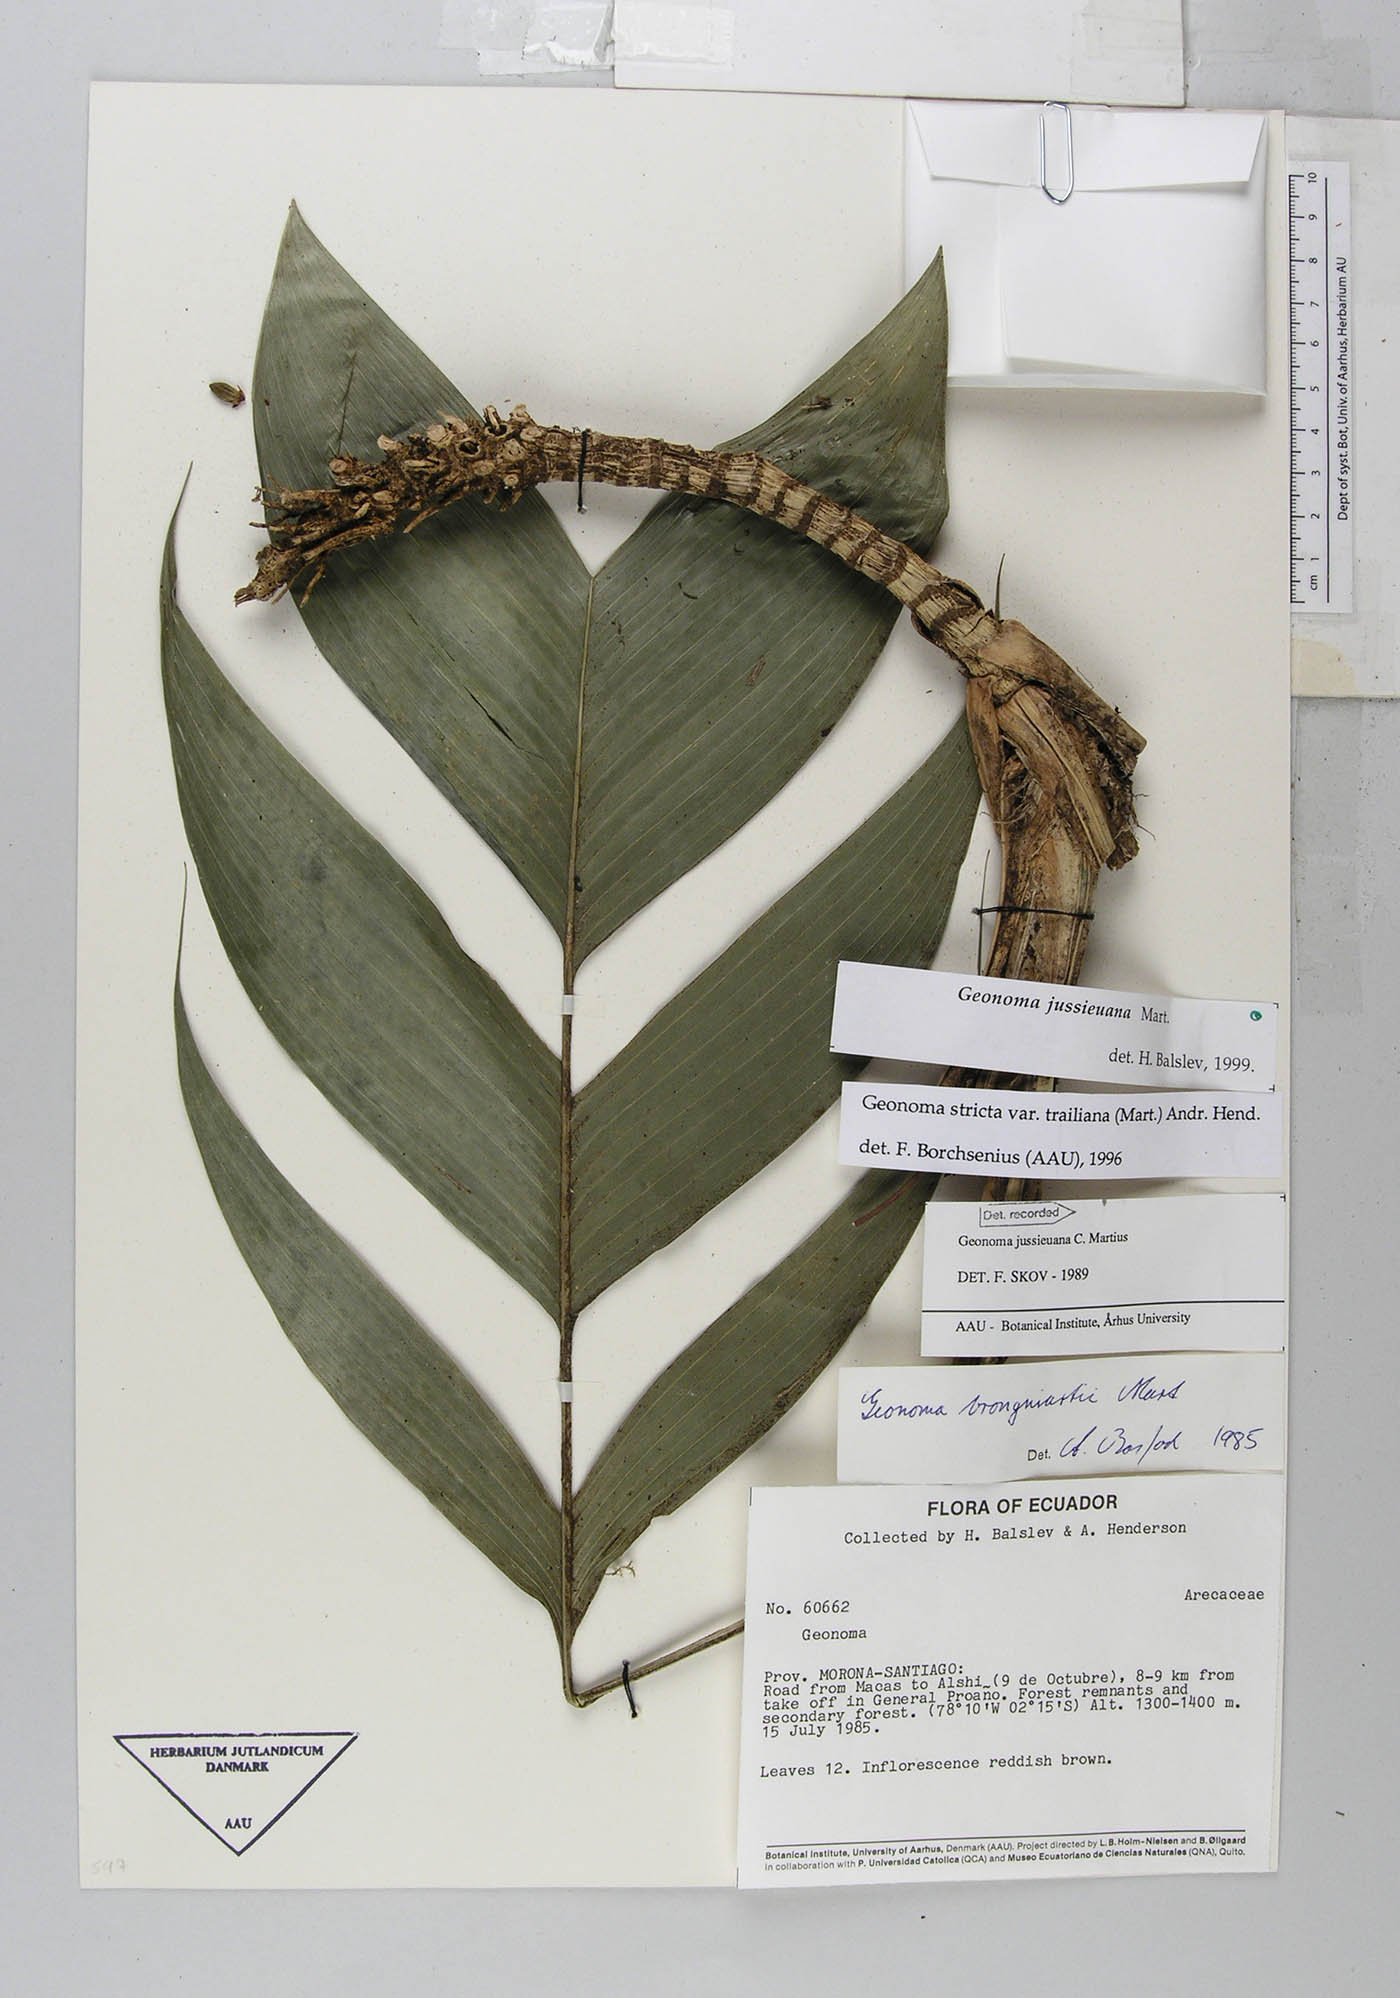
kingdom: Plantae
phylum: Tracheophyta
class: Liliopsida
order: Arecales
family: Arecaceae
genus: Geonoma
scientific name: Geonoma stricta
